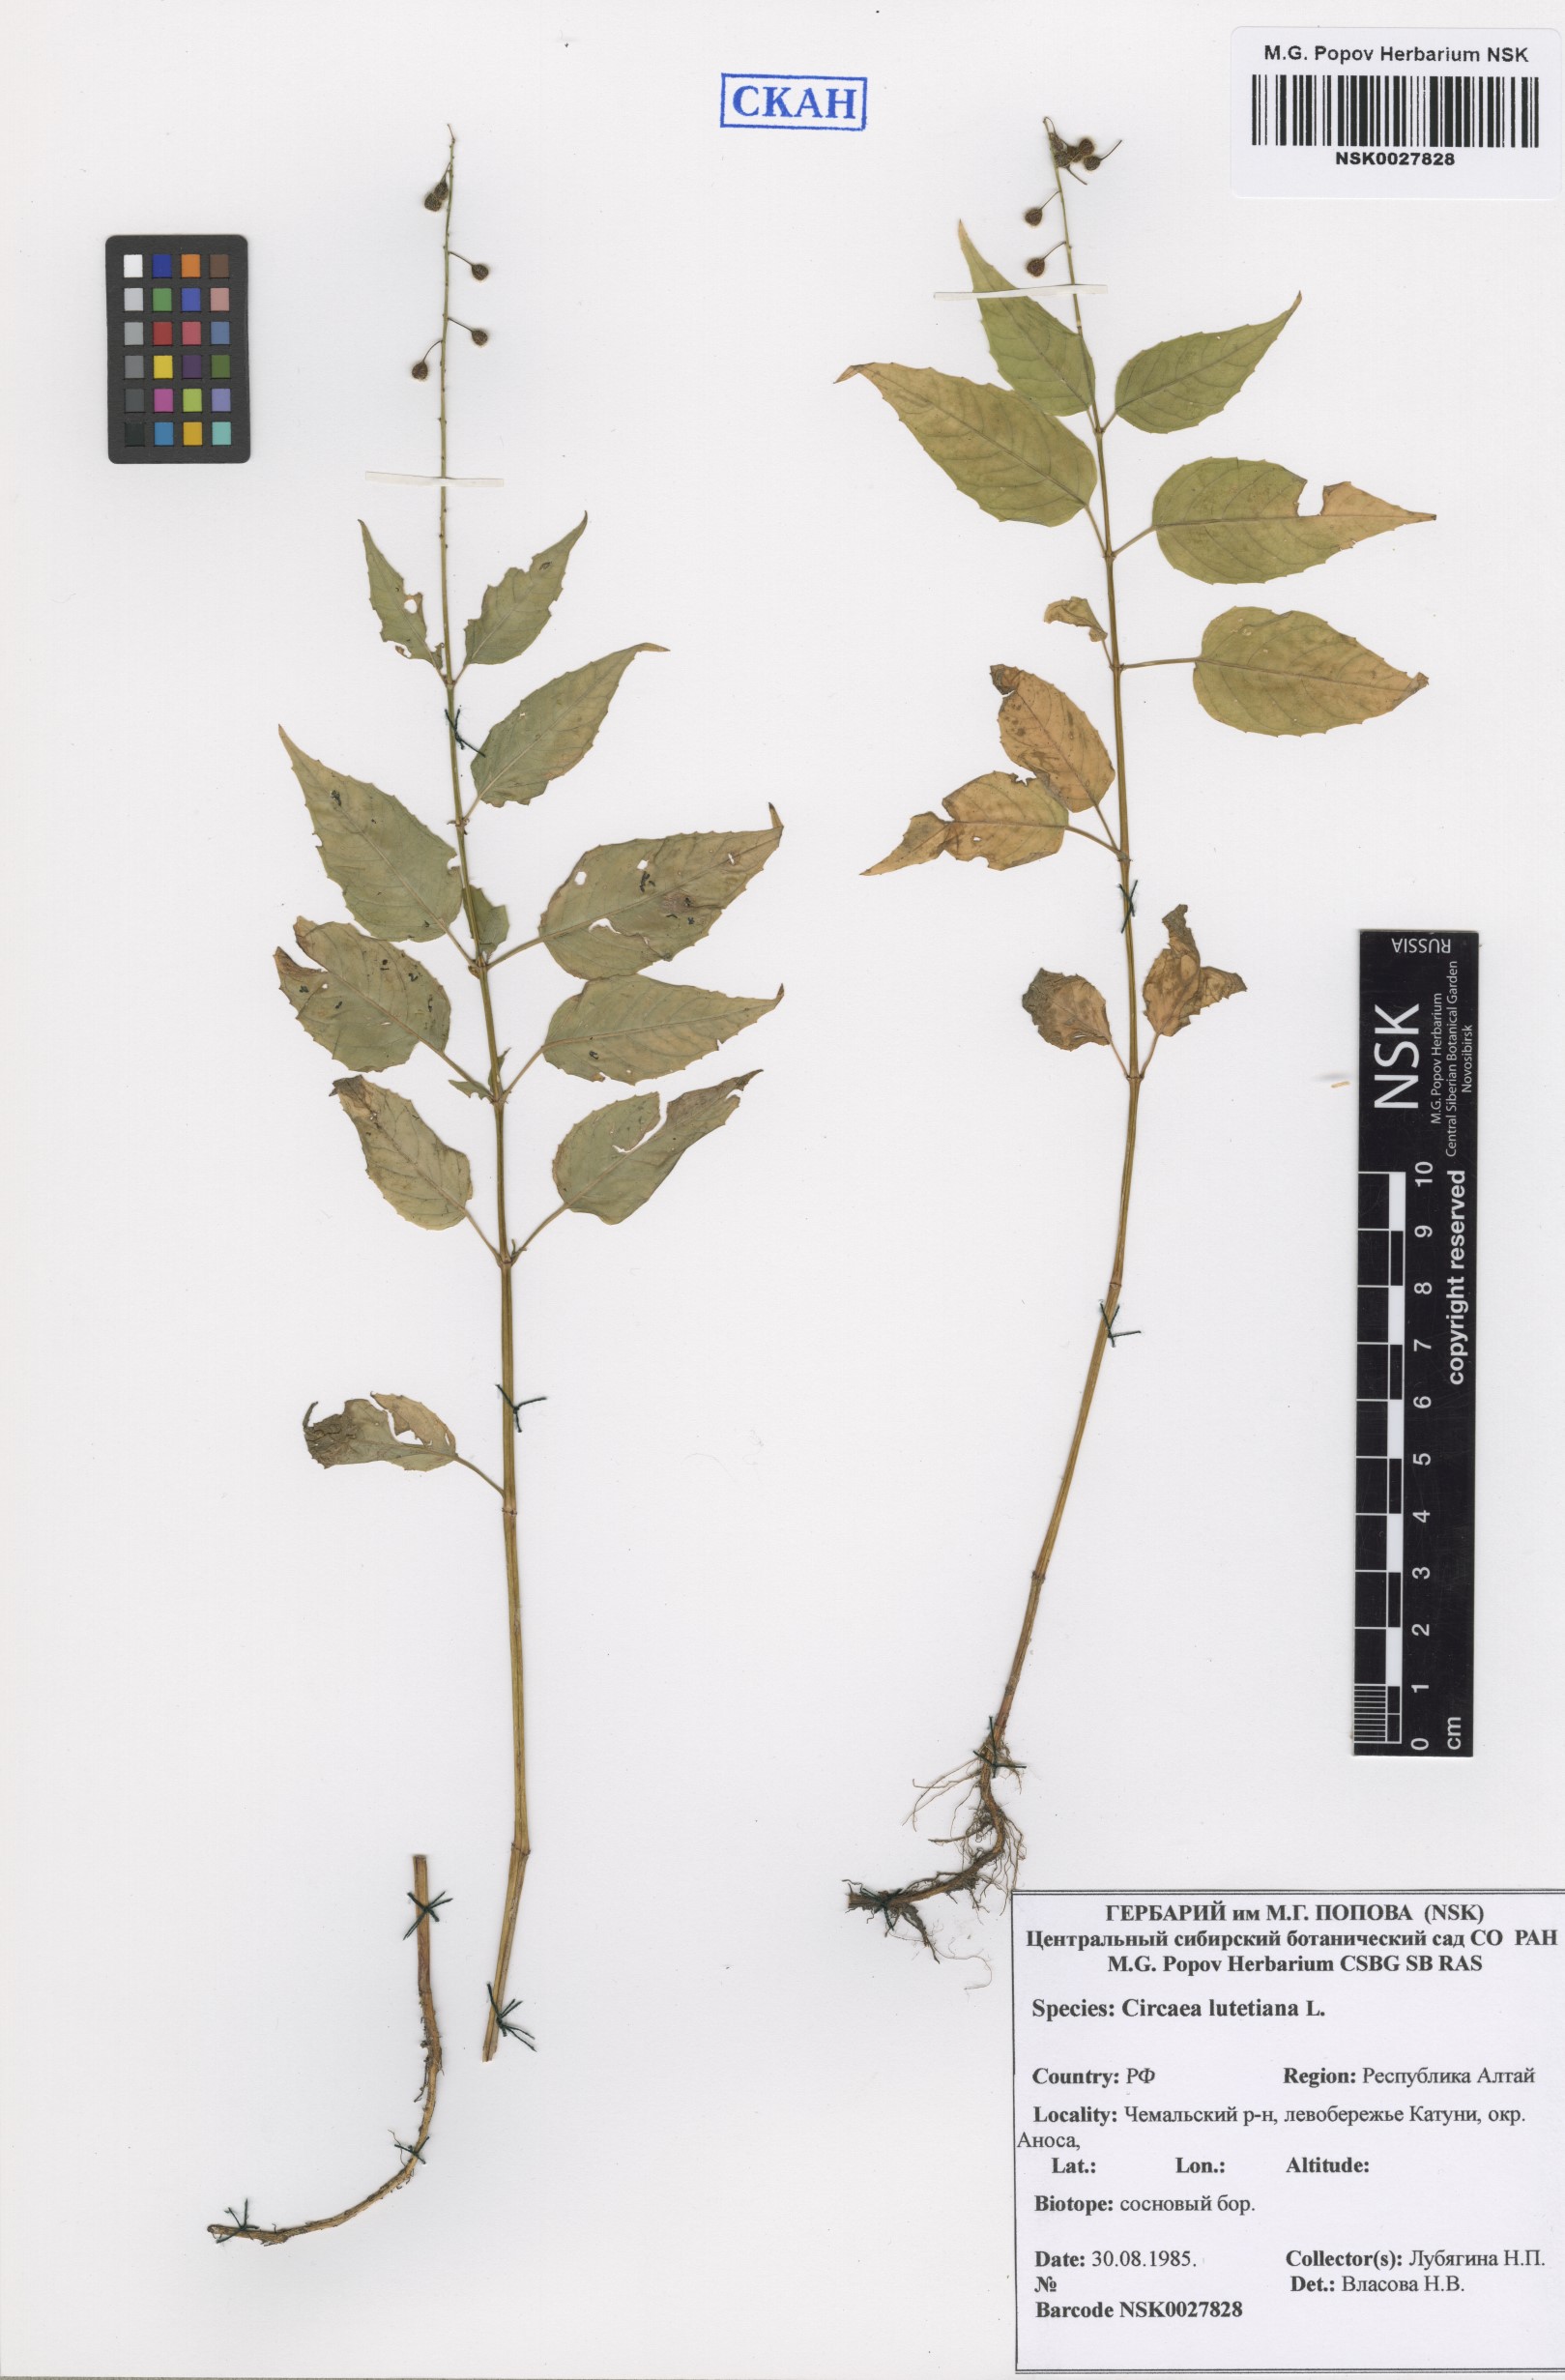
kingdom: Plantae
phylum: Tracheophyta
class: Magnoliopsida
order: Myrtales
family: Onagraceae
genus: Circaea
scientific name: Circaea lutetiana
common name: Enchanter's-nightshade
